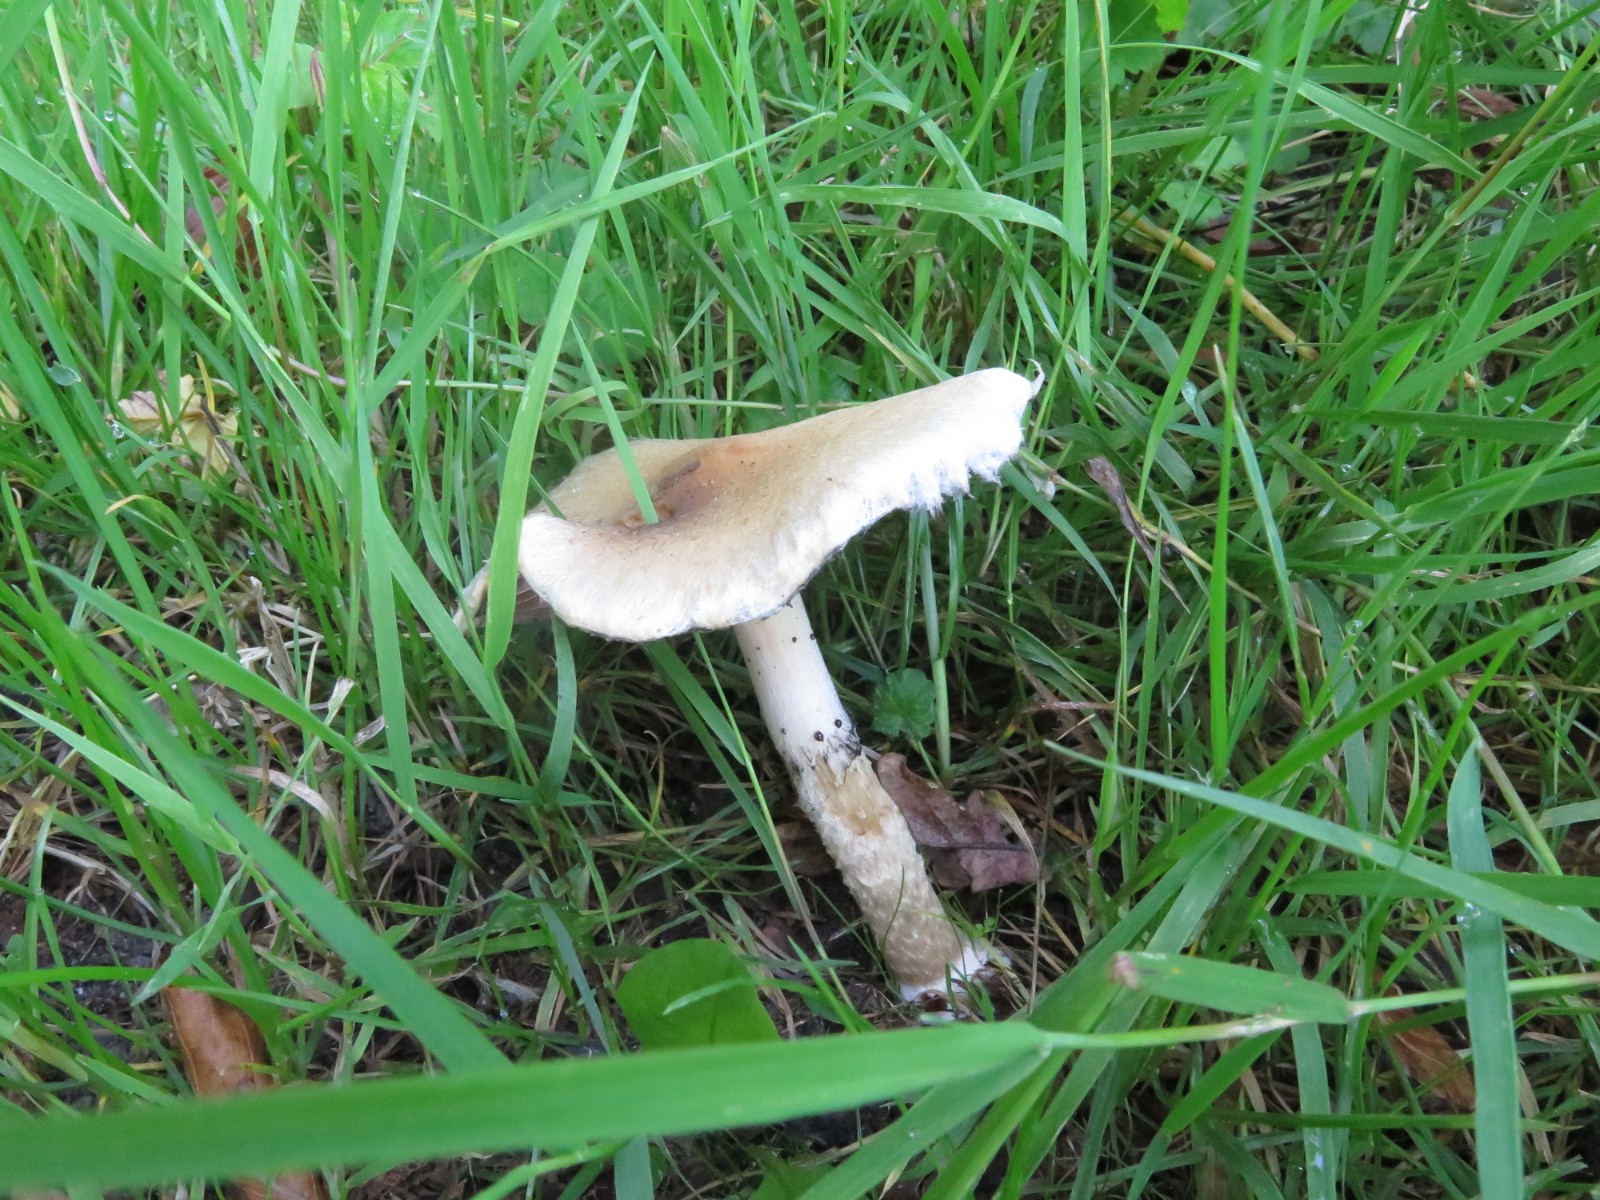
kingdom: Fungi
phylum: Basidiomycota
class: Agaricomycetes
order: Agaricales
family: Psathyrellaceae
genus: Lacrymaria
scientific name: Lacrymaria lacrymabunda
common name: grædende mørkhat
